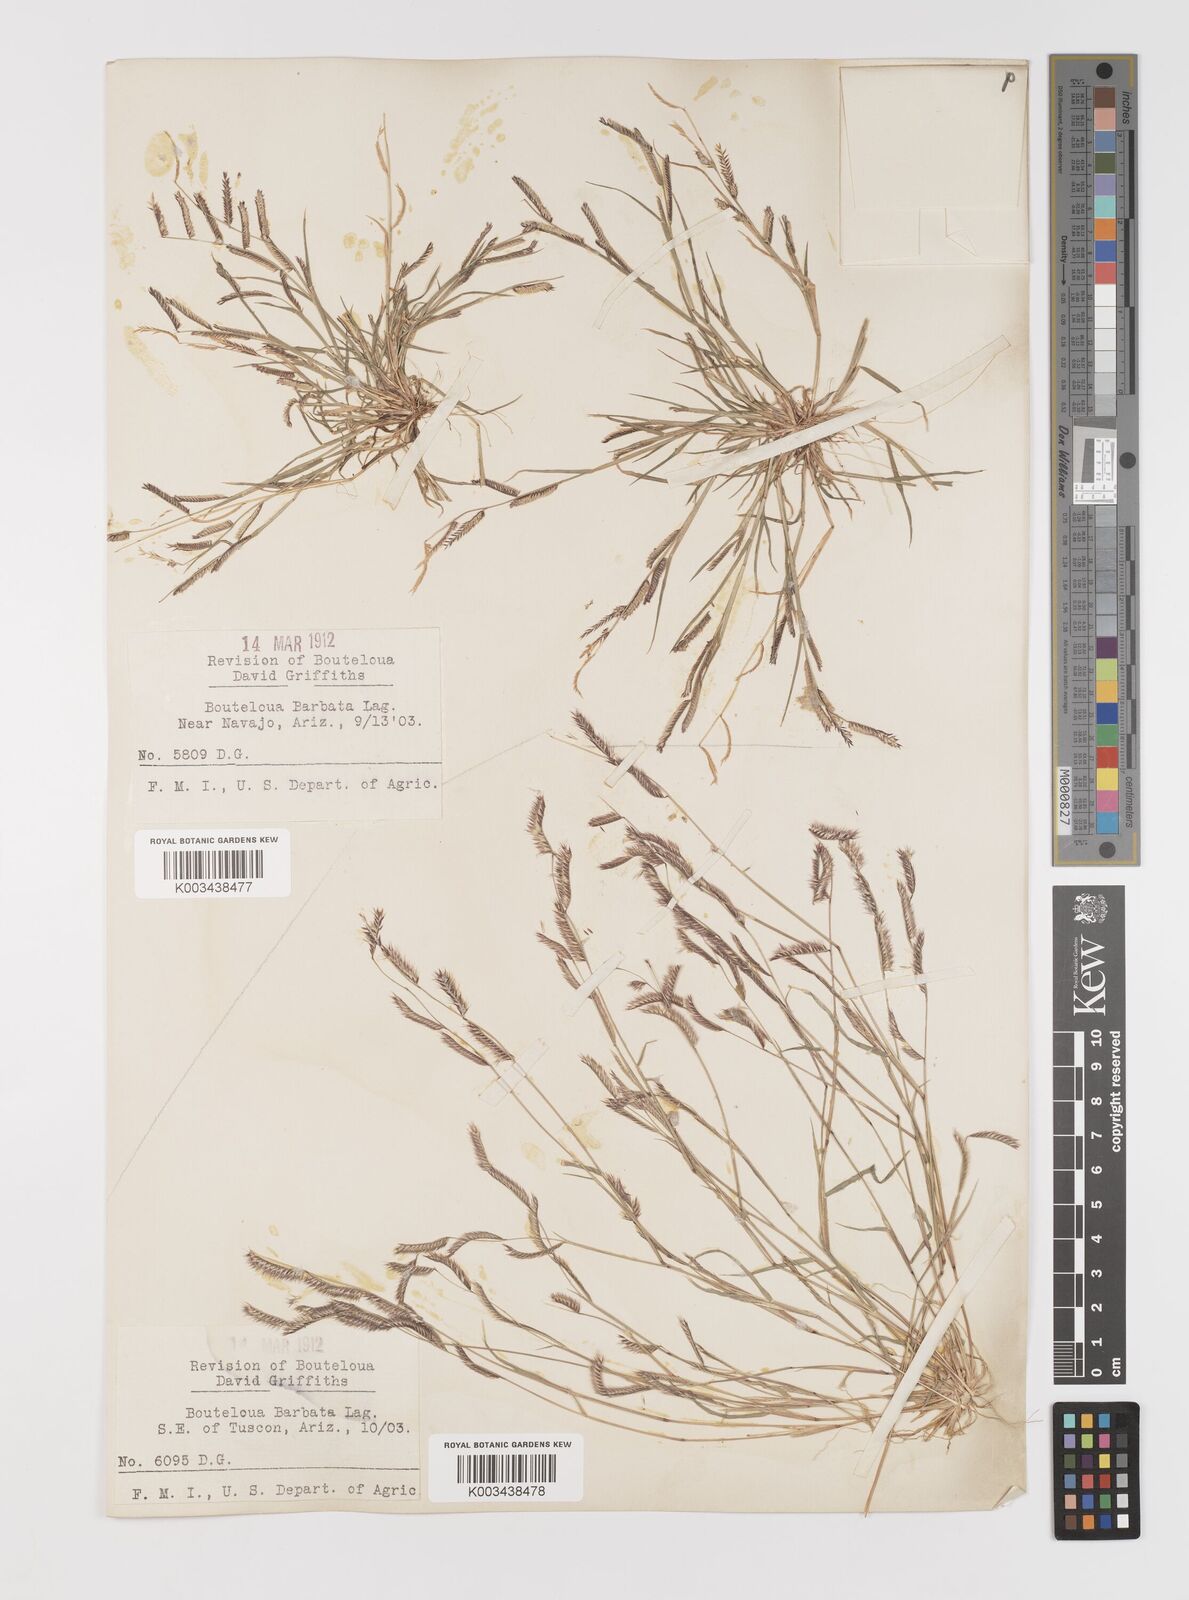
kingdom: Plantae
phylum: Tracheophyta
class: Liliopsida
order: Poales
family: Poaceae
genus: Bouteloua
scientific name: Bouteloua
